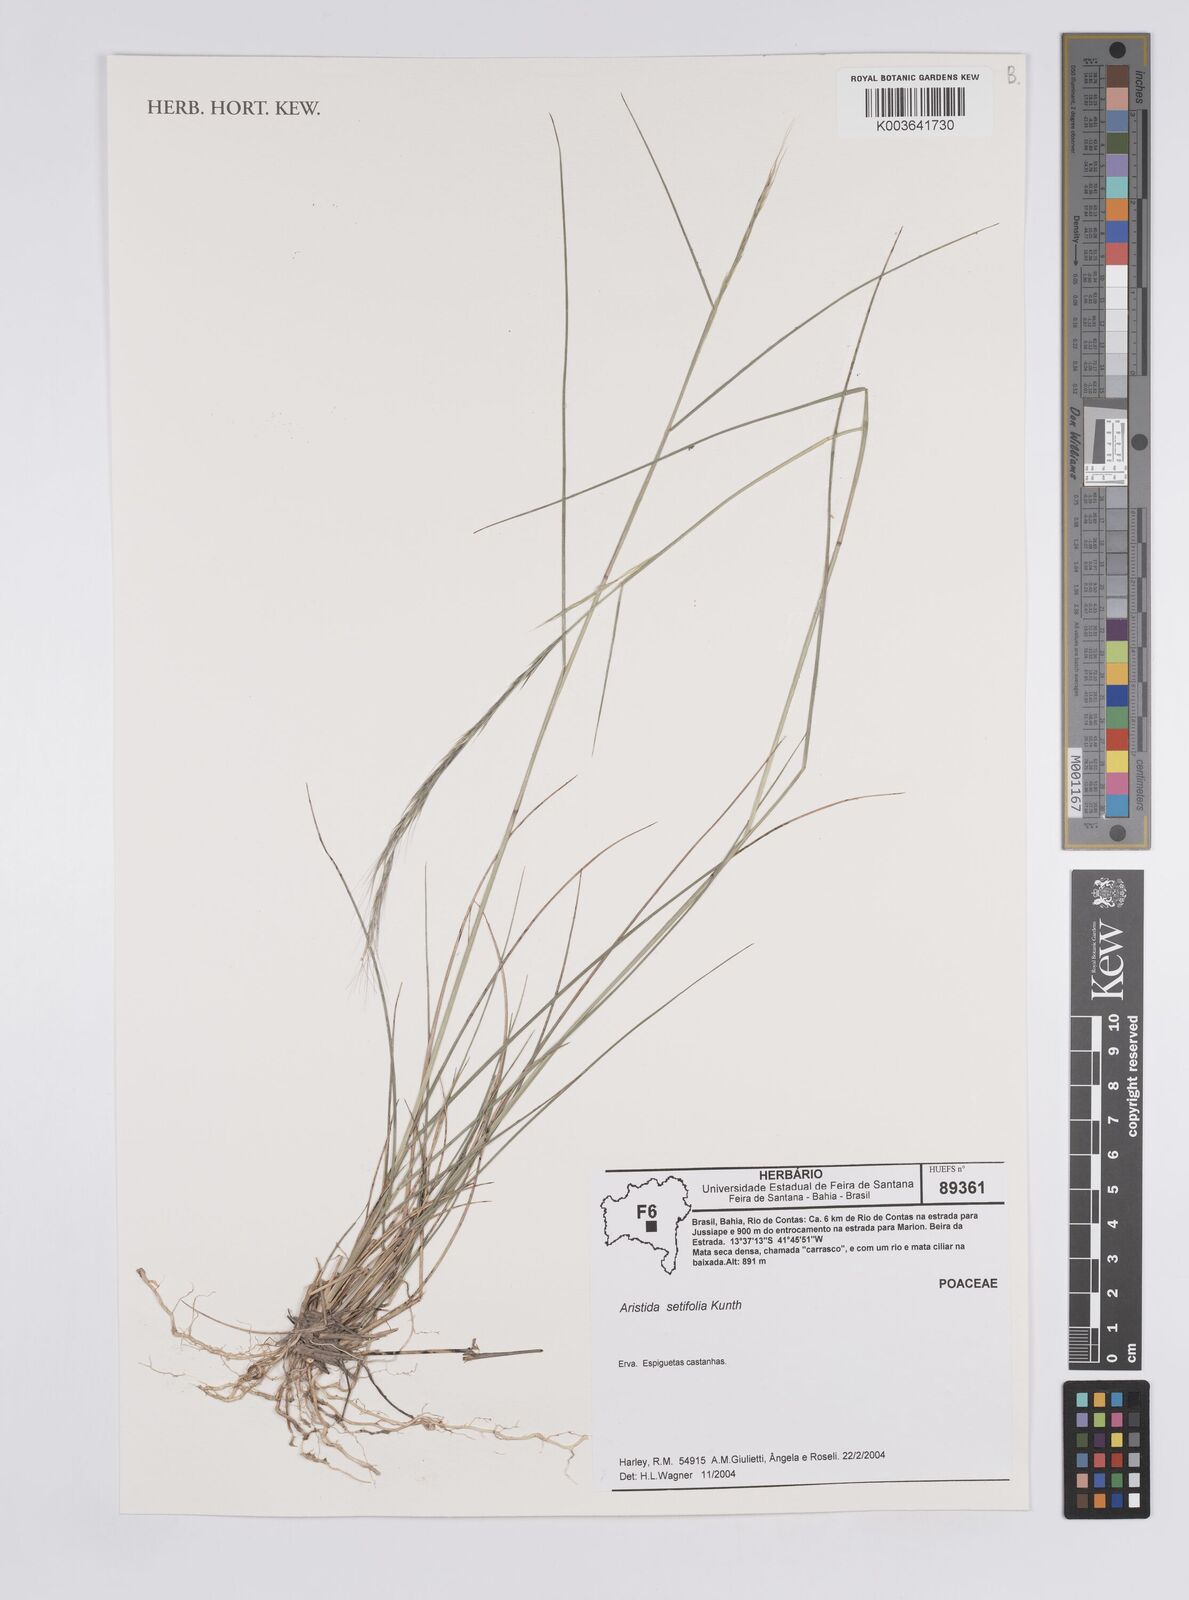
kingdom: Plantae
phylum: Tracheophyta
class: Liliopsida
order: Poales
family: Poaceae
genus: Aristida
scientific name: Aristida setifolia
